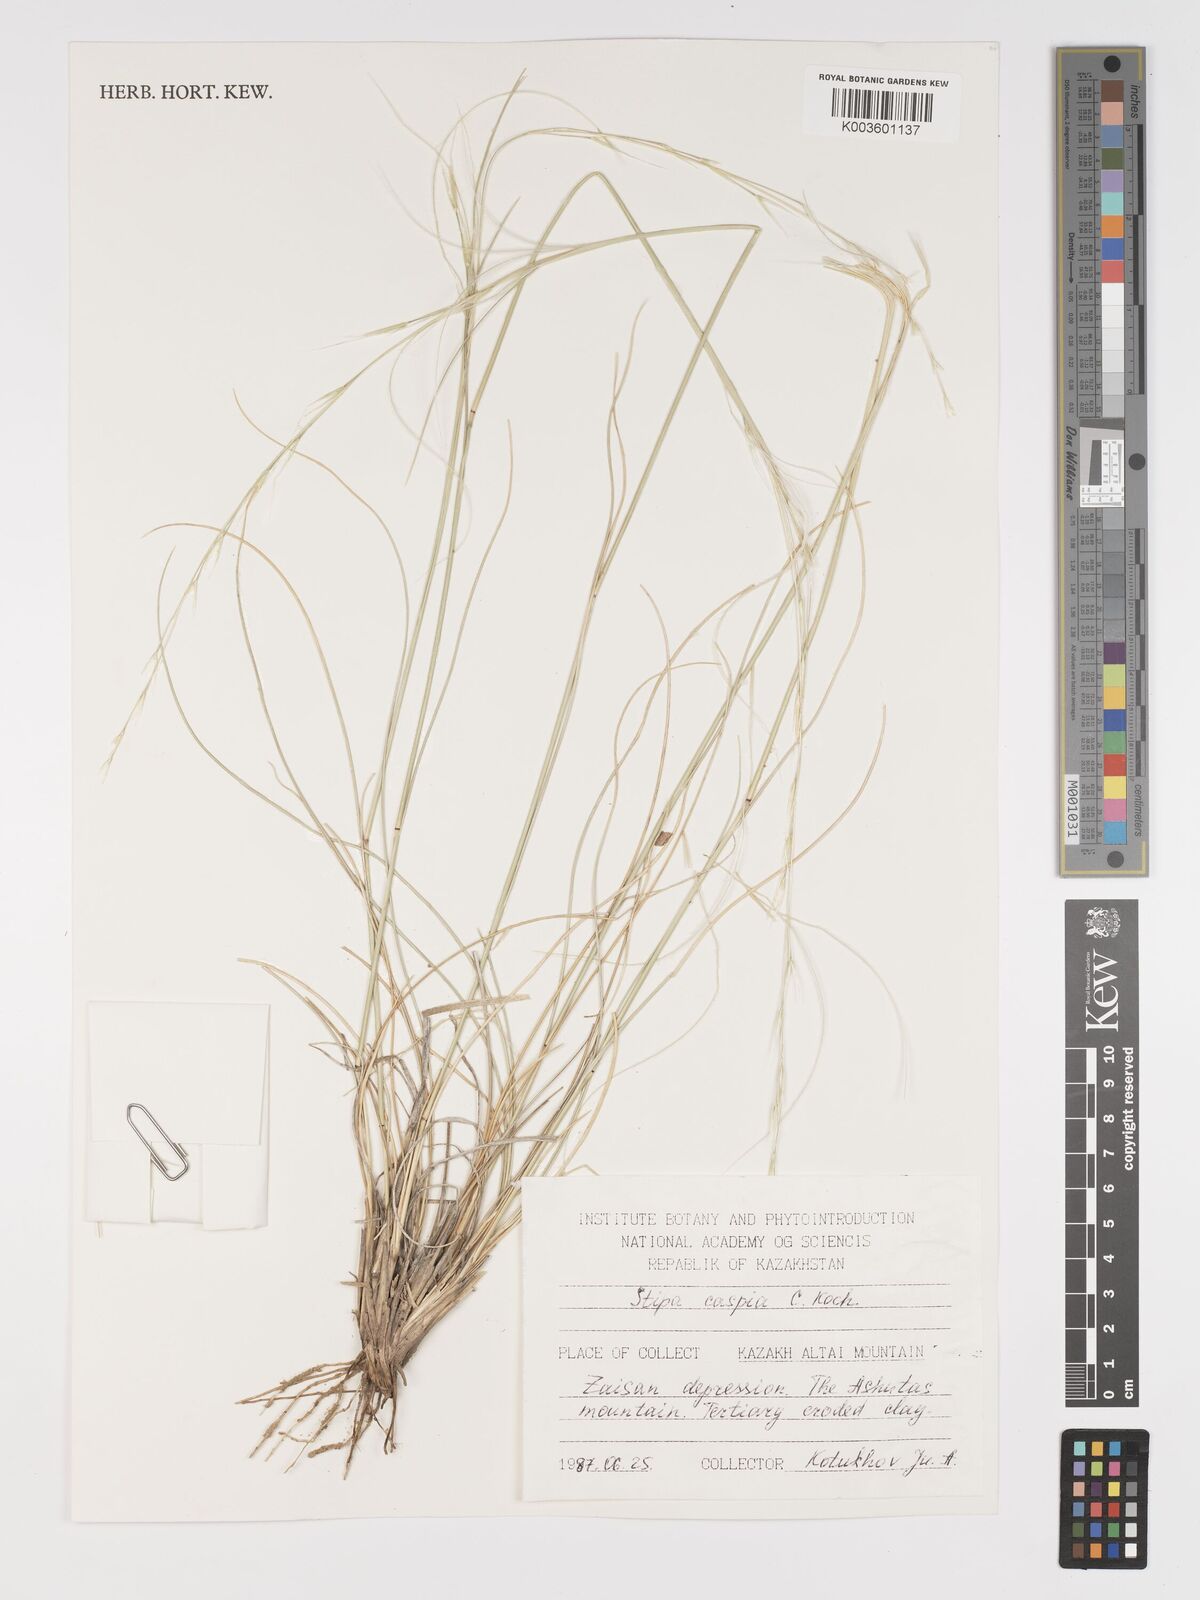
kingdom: Plantae
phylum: Tracheophyta
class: Liliopsida
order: Poales
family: Poaceae
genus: Stipa
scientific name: Stipa arabica
